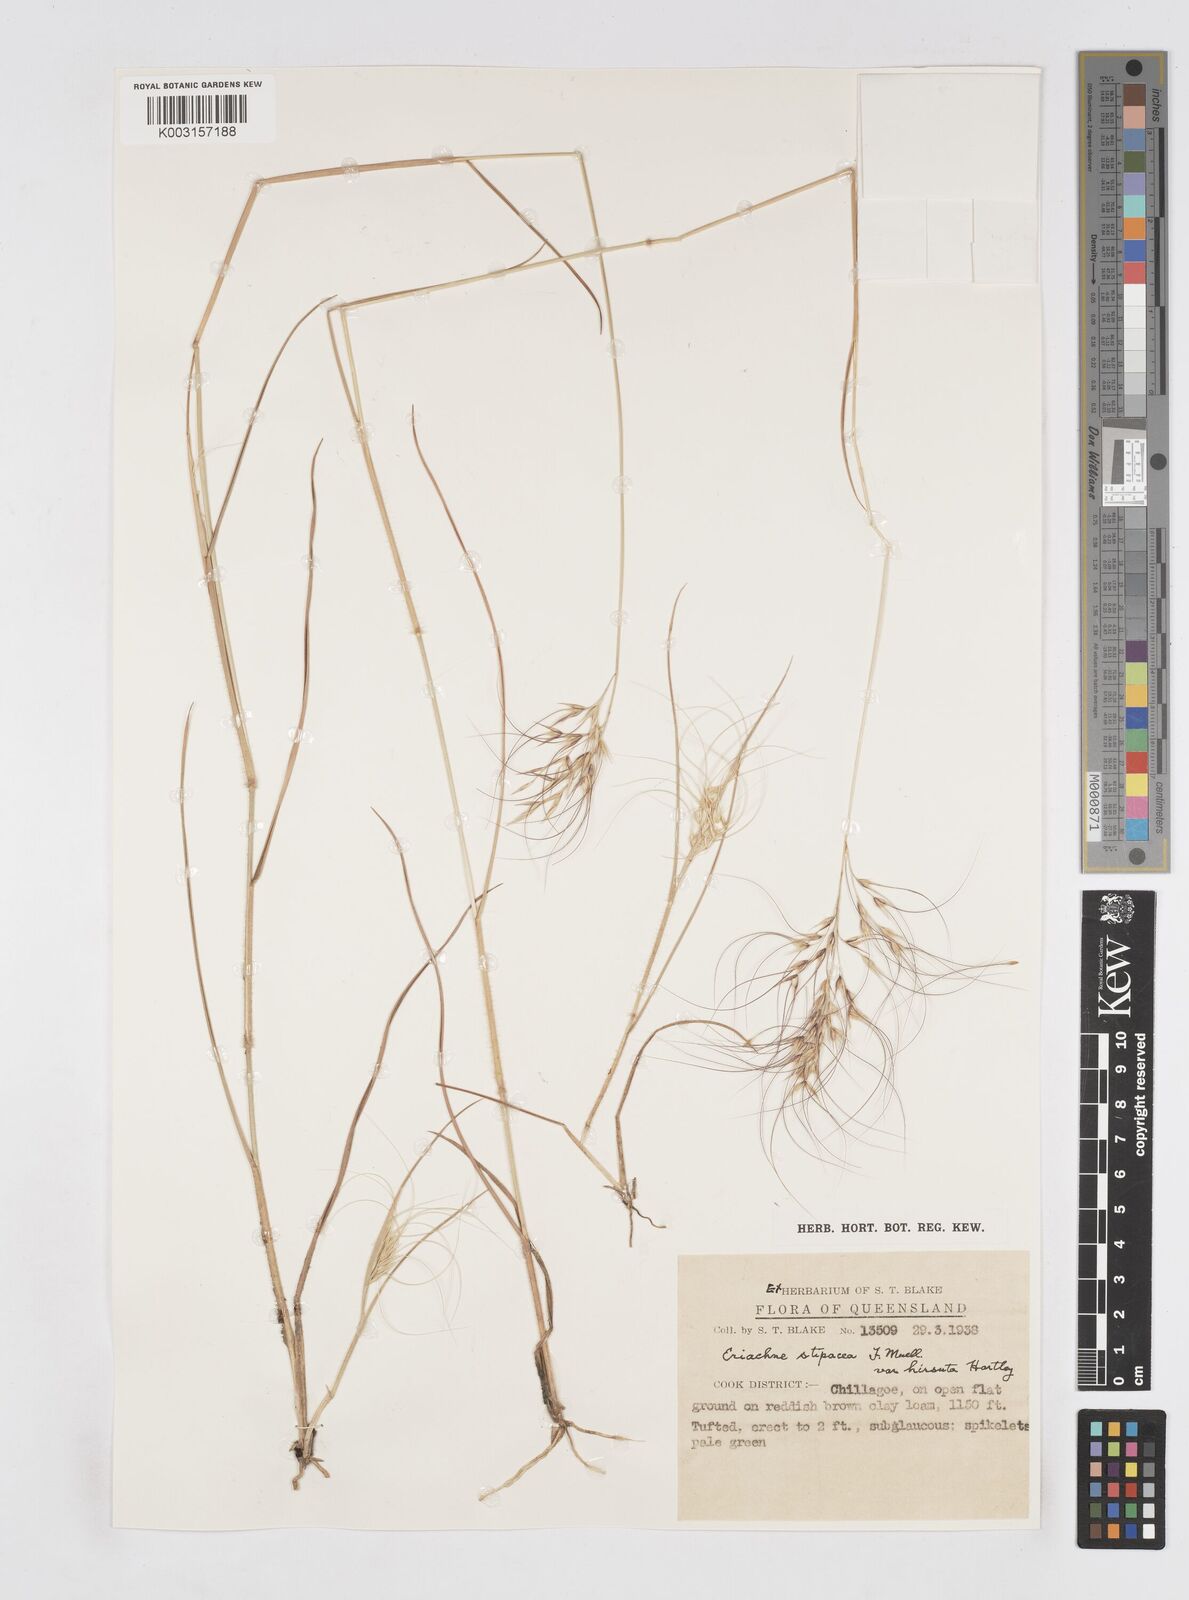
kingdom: Plantae
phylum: Tracheophyta
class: Liliopsida
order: Poales
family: Poaceae
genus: Eriachne
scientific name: Eriachne aristidea
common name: Three-awn wanderrie grass
